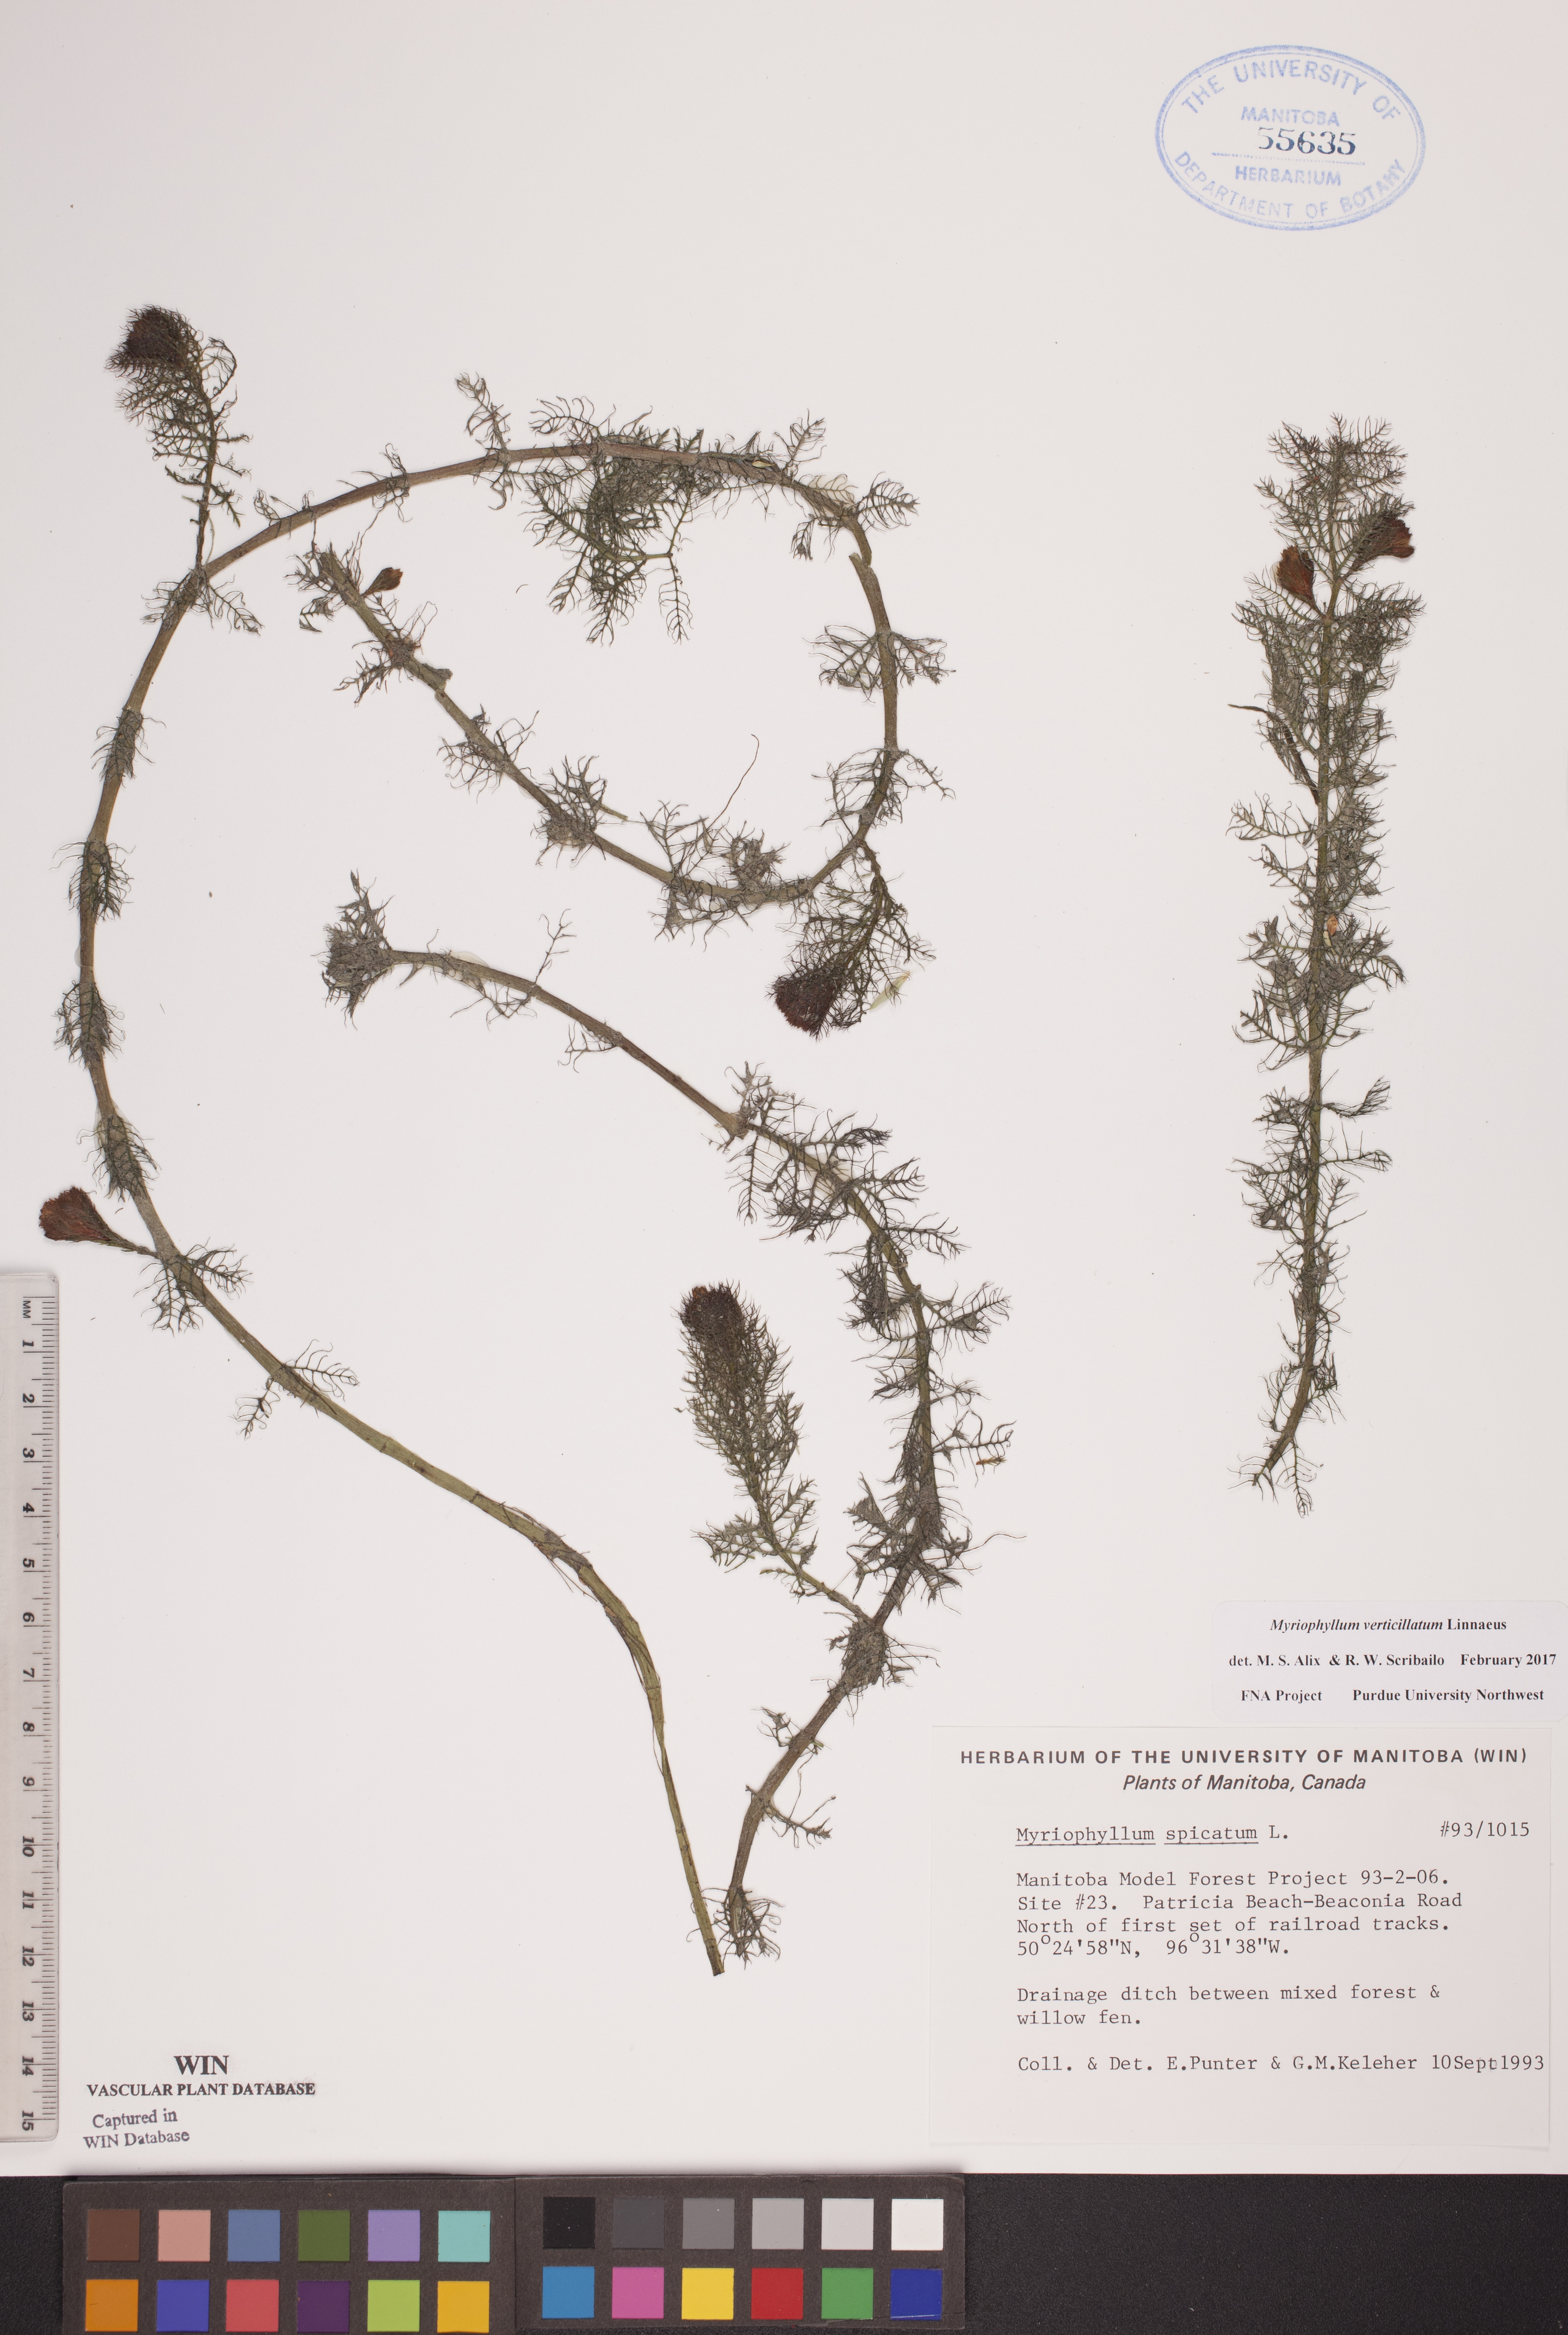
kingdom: Plantae
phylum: Tracheophyta
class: Magnoliopsida
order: Saxifragales
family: Haloragaceae
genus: Myriophyllum
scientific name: Myriophyllum verticillatum
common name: Whorled water-milfoil
